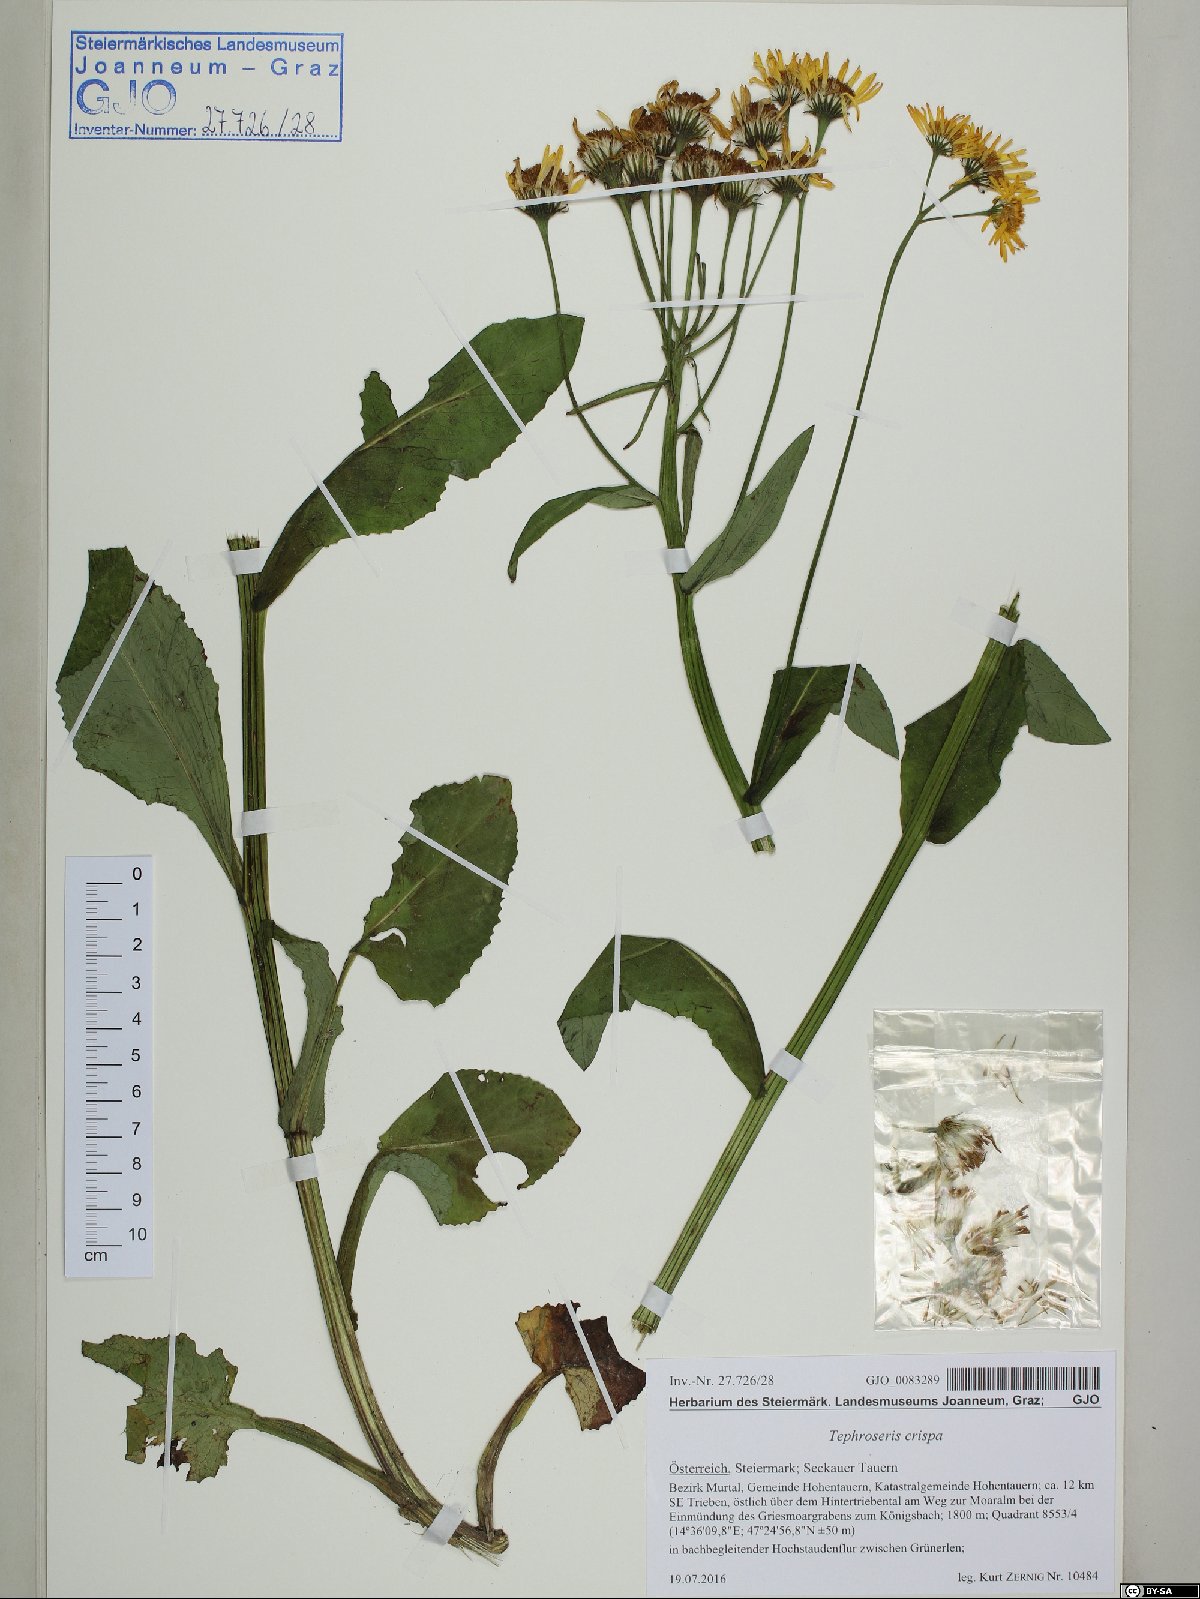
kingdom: Plantae
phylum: Tracheophyta
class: Magnoliopsida
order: Asterales
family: Asteraceae
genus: Tephroseris
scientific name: Tephroseris crispa
